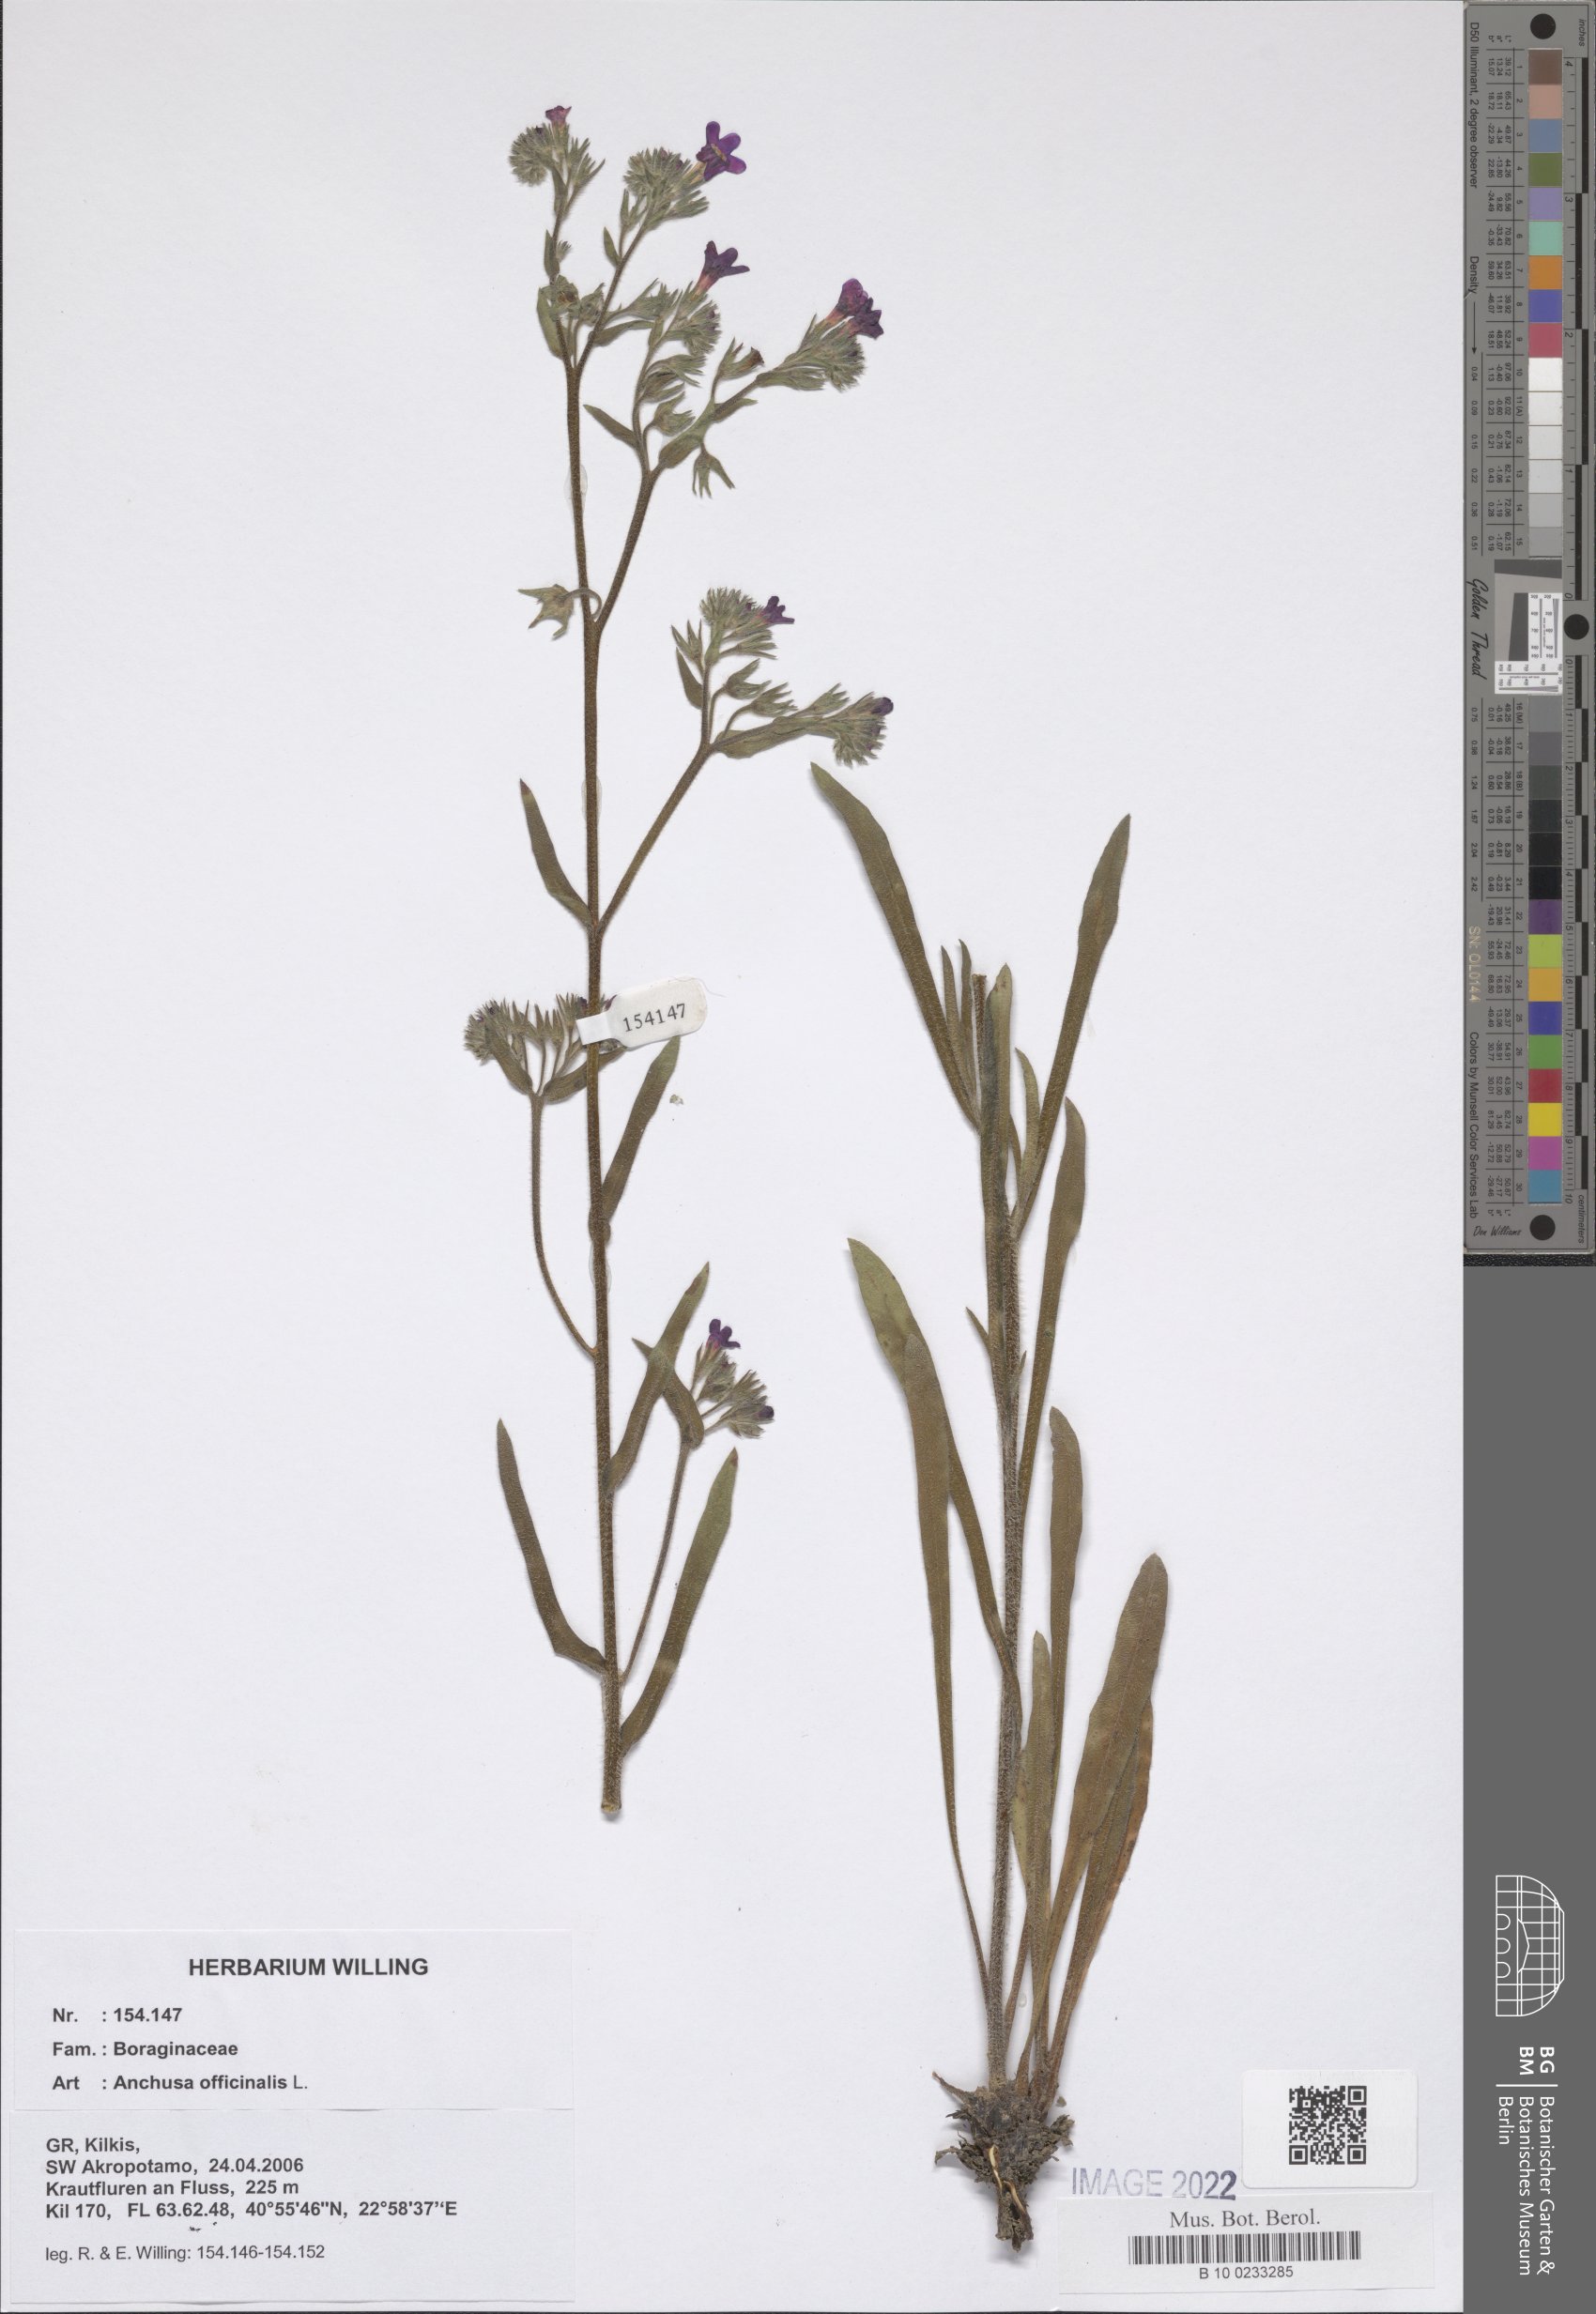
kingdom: Plantae
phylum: Tracheophyta
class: Magnoliopsida
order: Boraginales
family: Boraginaceae
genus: Anchusa
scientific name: Anchusa officinalis
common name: Alkanet
